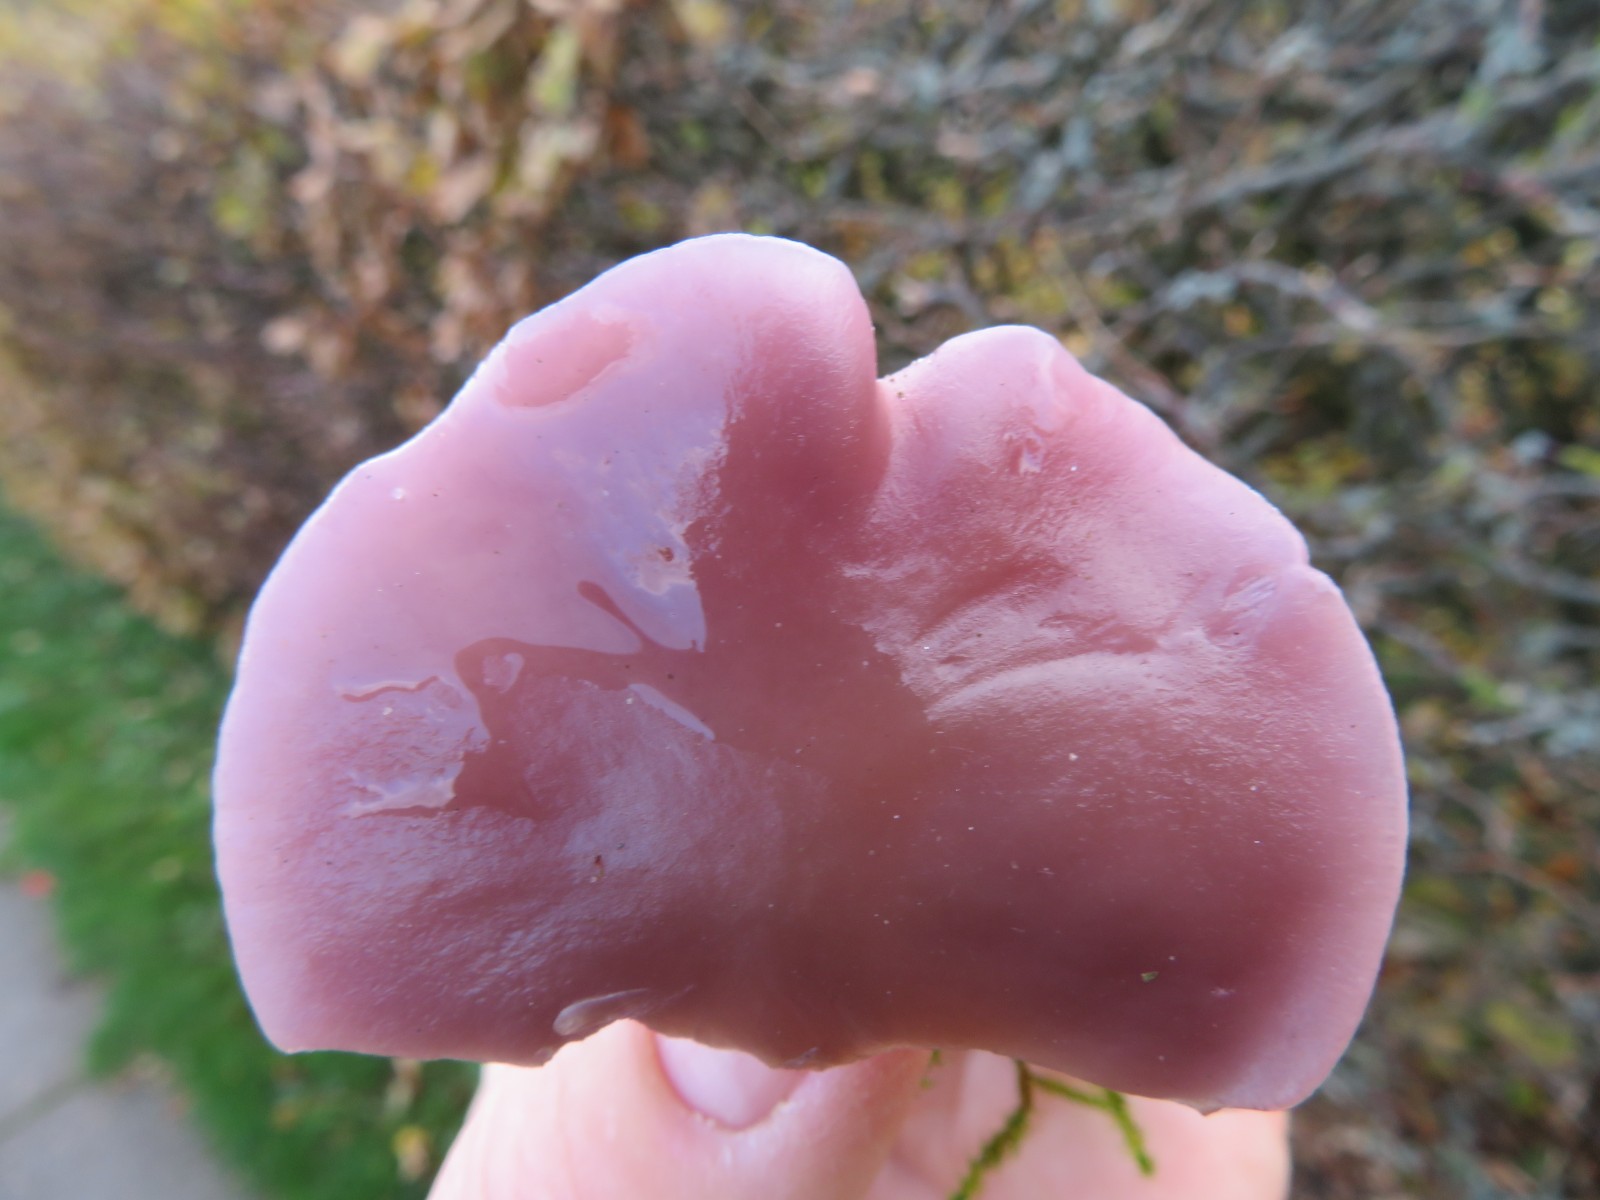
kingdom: Fungi
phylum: Basidiomycota
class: Agaricomycetes
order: Agaricales
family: Tricholomataceae
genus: Lepista
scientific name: Lepista nuda
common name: violet hekseringshat
